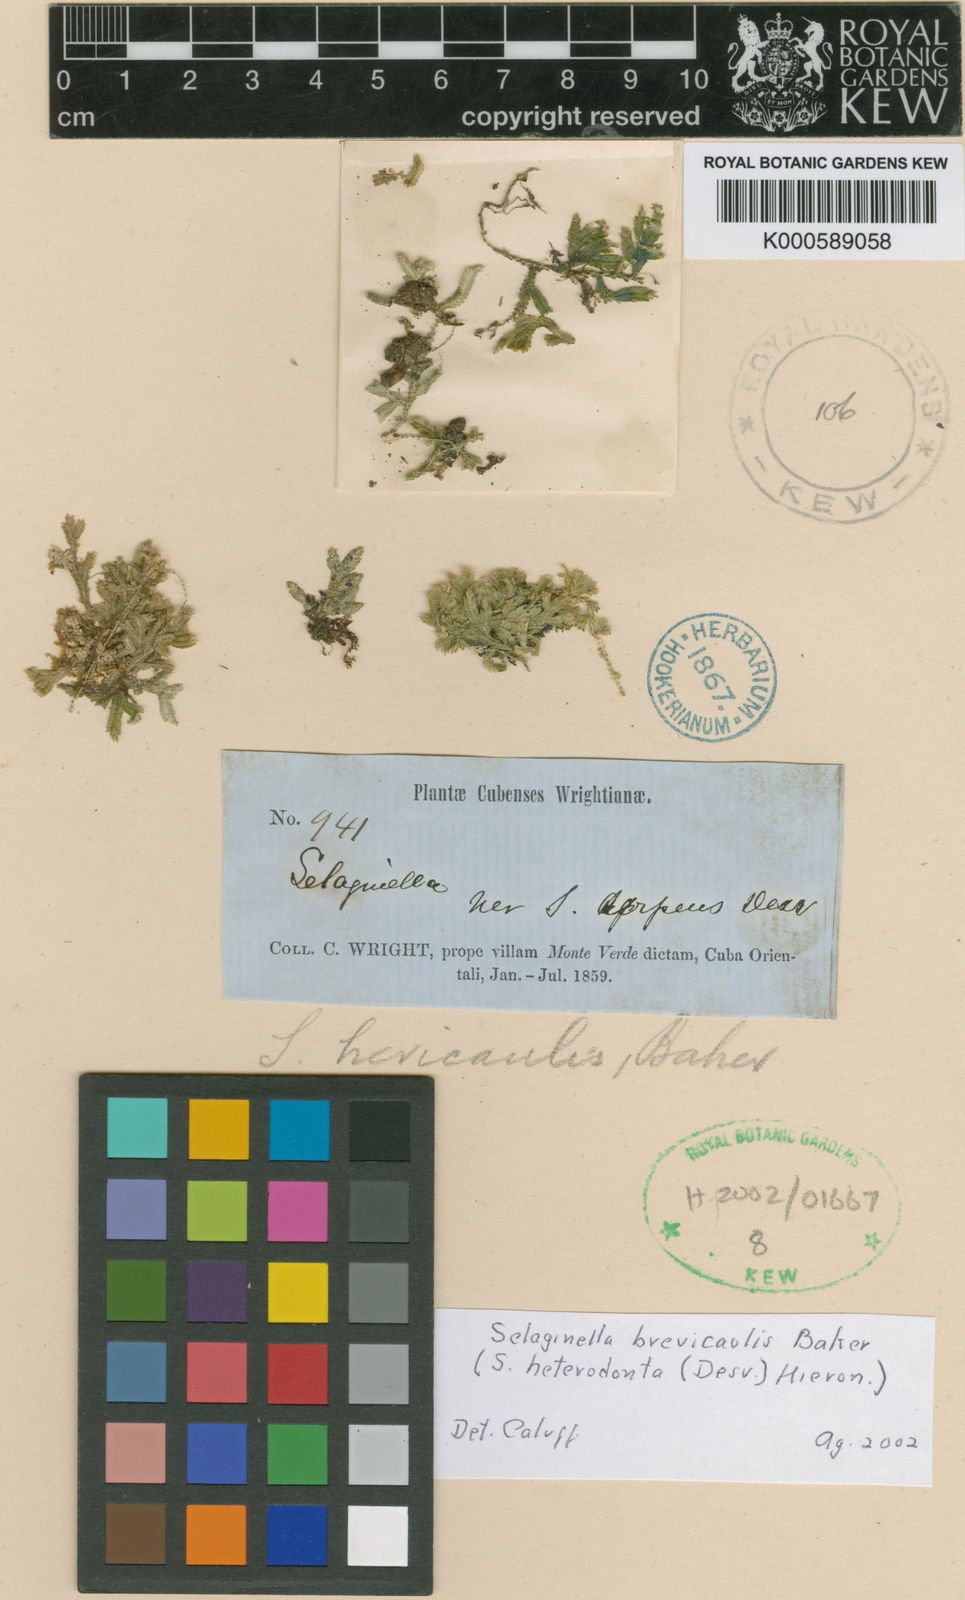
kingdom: Plantae
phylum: Tracheophyta
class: Lycopodiopsida
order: Selaginellales
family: Selaginellaceae
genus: Selaginella
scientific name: Selaginella heterodonta
